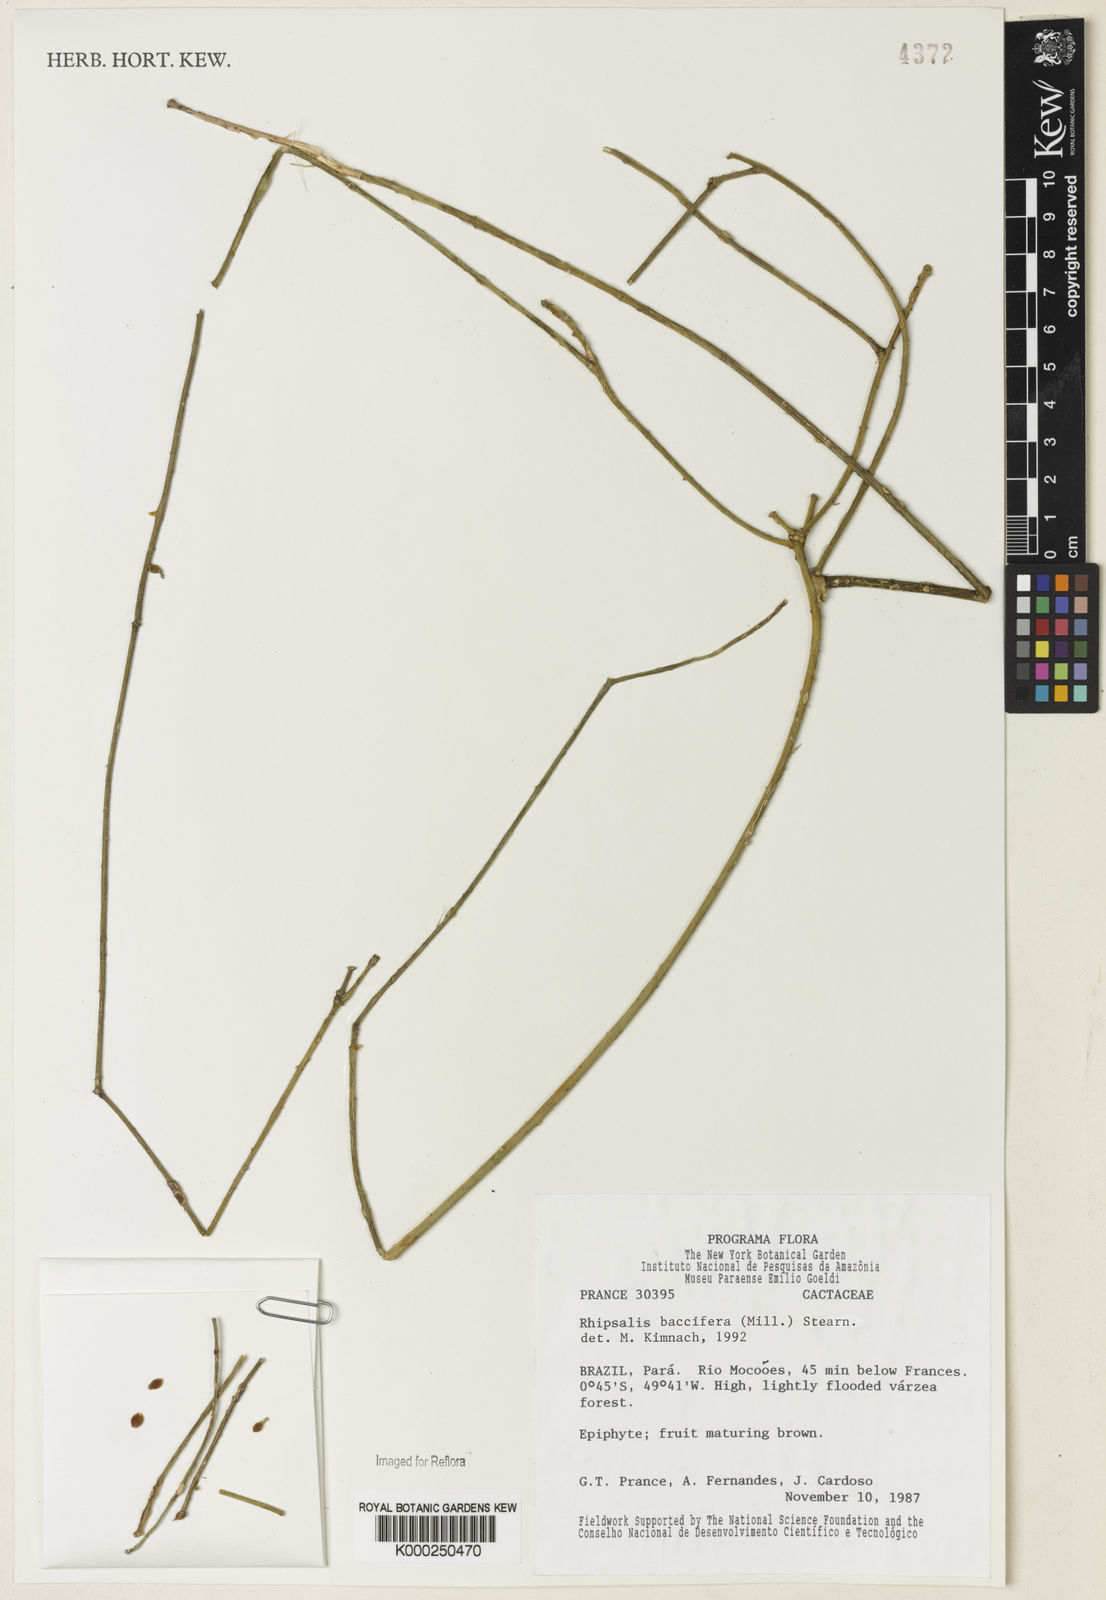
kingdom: Plantae
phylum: Tracheophyta
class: Magnoliopsida
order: Caryophyllales
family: Cactaceae
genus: Rhipsalis
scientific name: Rhipsalis baccifera
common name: Mistletoe cactus
